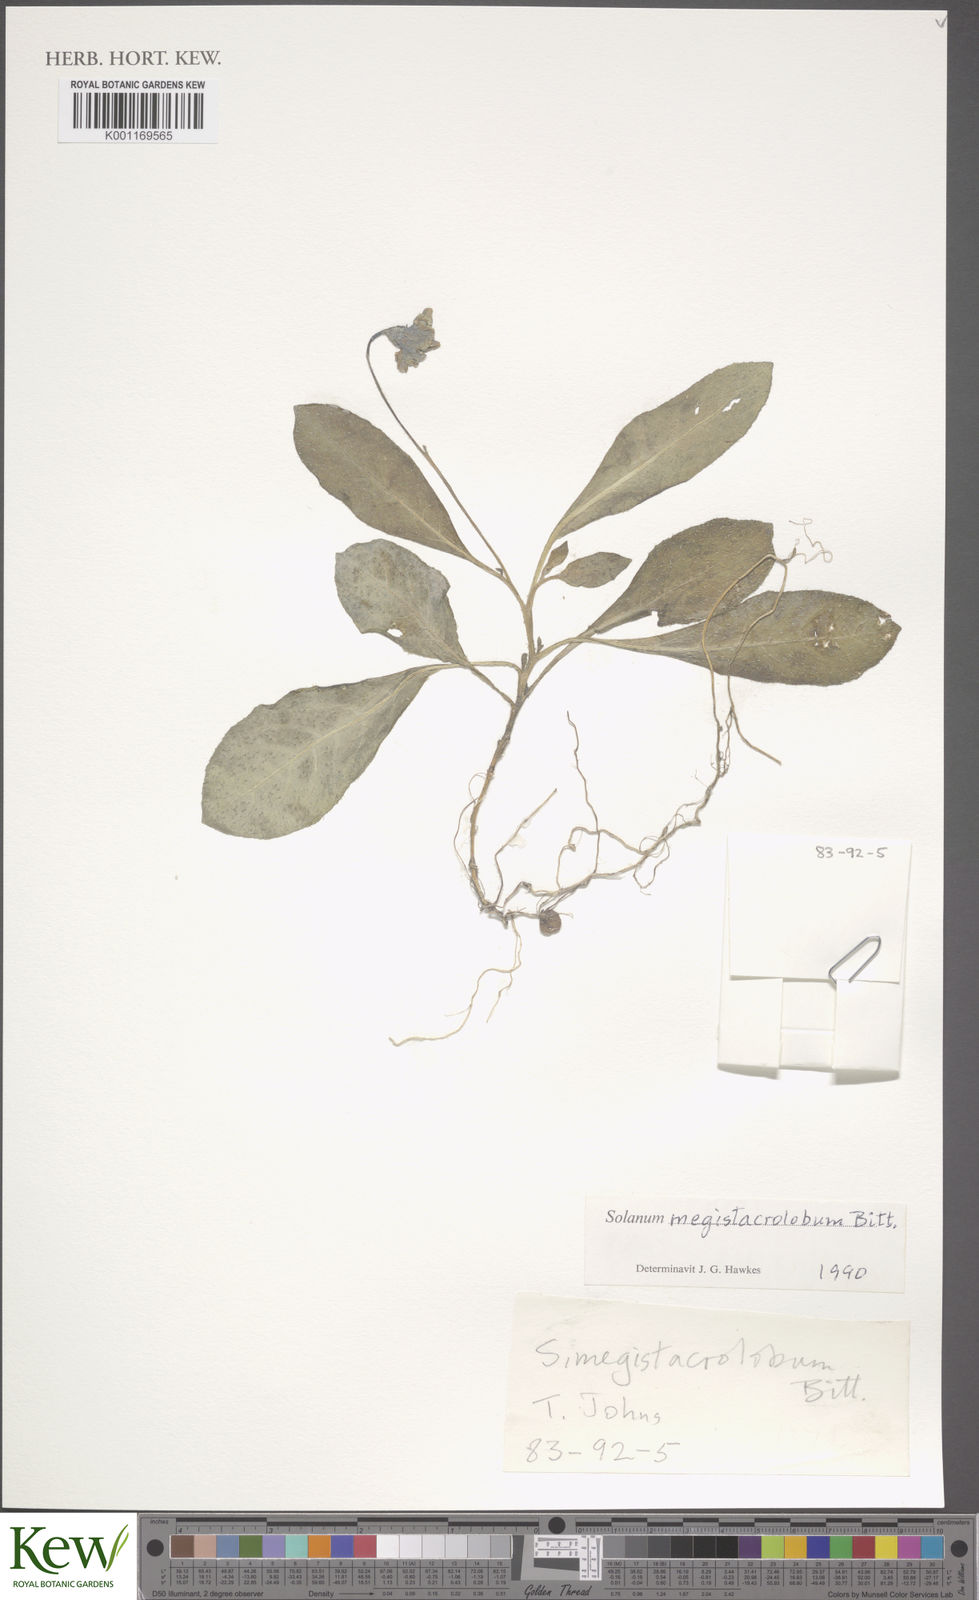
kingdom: Plantae
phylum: Tracheophyta
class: Magnoliopsida
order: Solanales
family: Solanaceae
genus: Solanum
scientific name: Solanum boliviense
